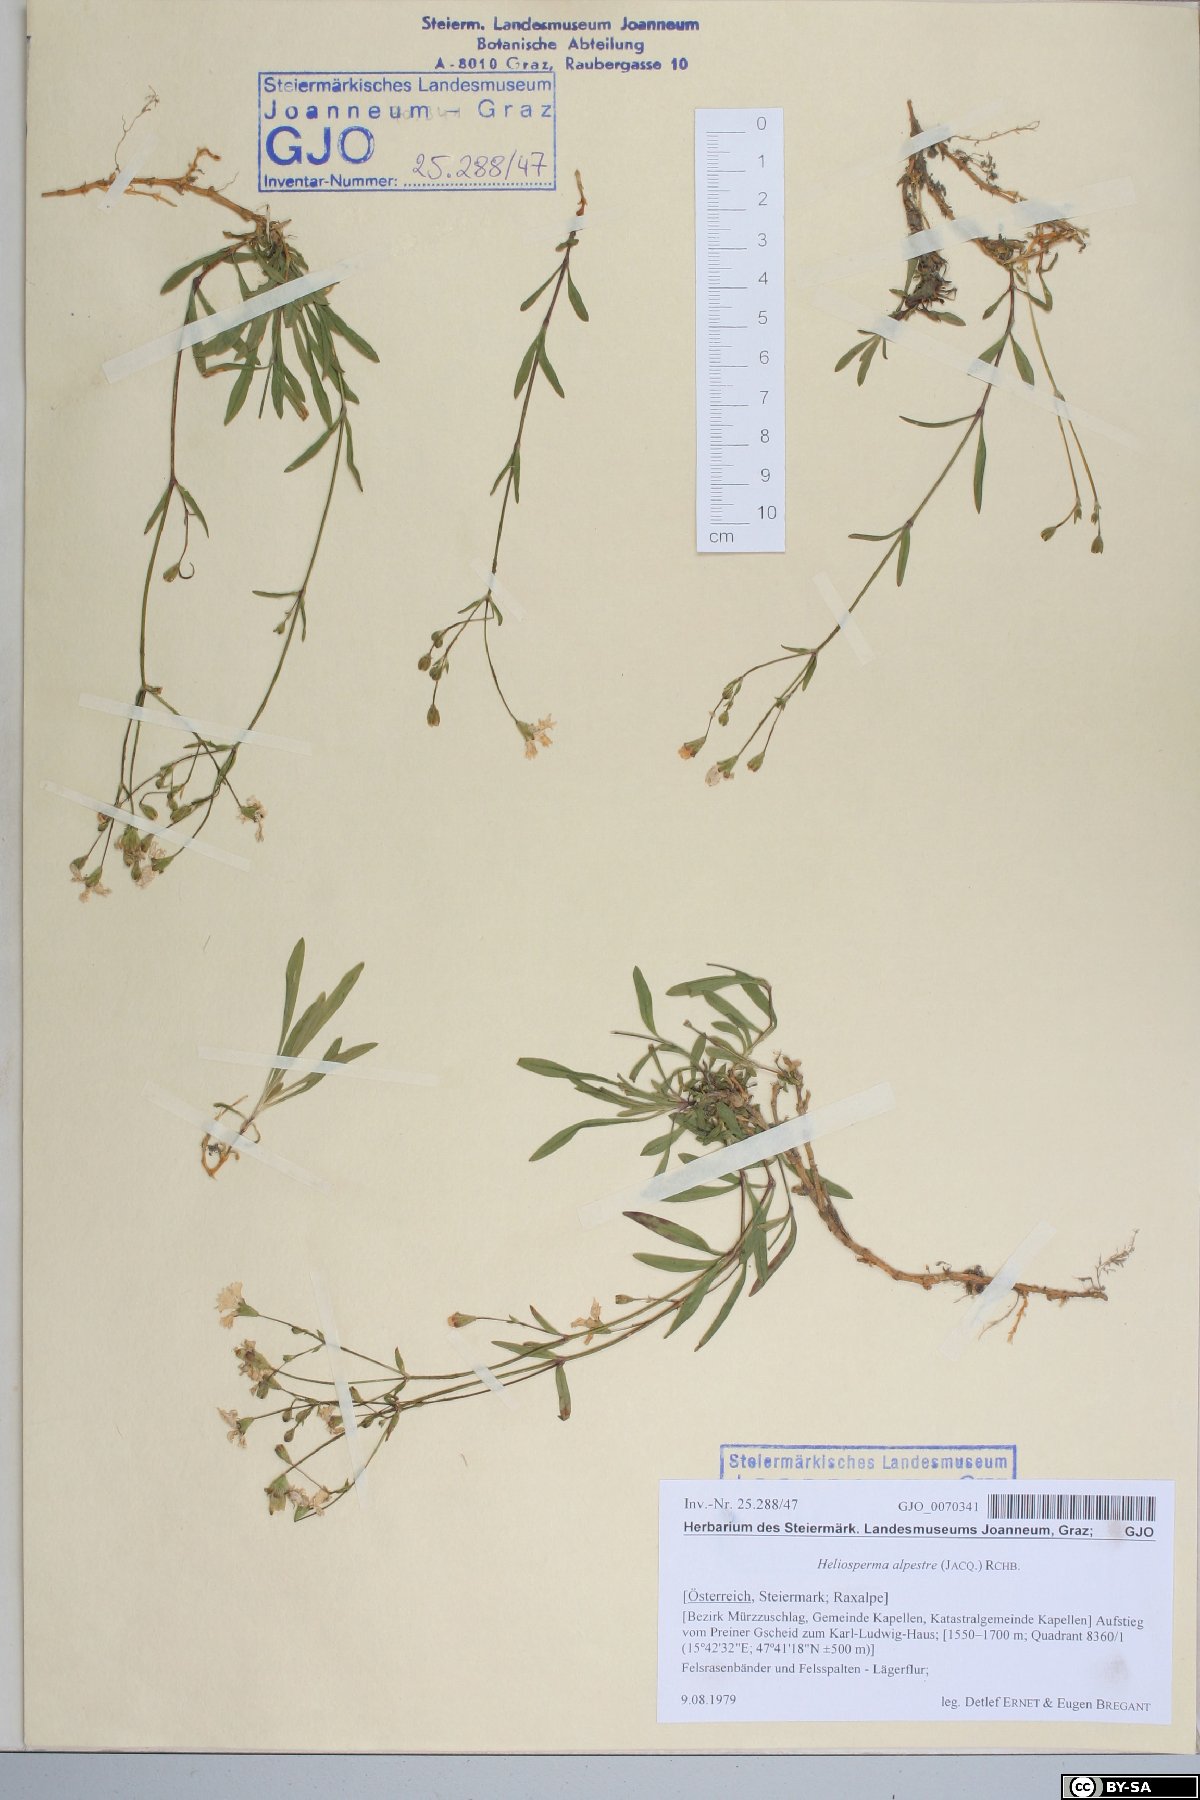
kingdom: Plantae
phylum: Tracheophyta
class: Magnoliopsida
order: Caryophyllales
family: Caryophyllaceae
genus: Heliosperma
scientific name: Heliosperma alpestre
